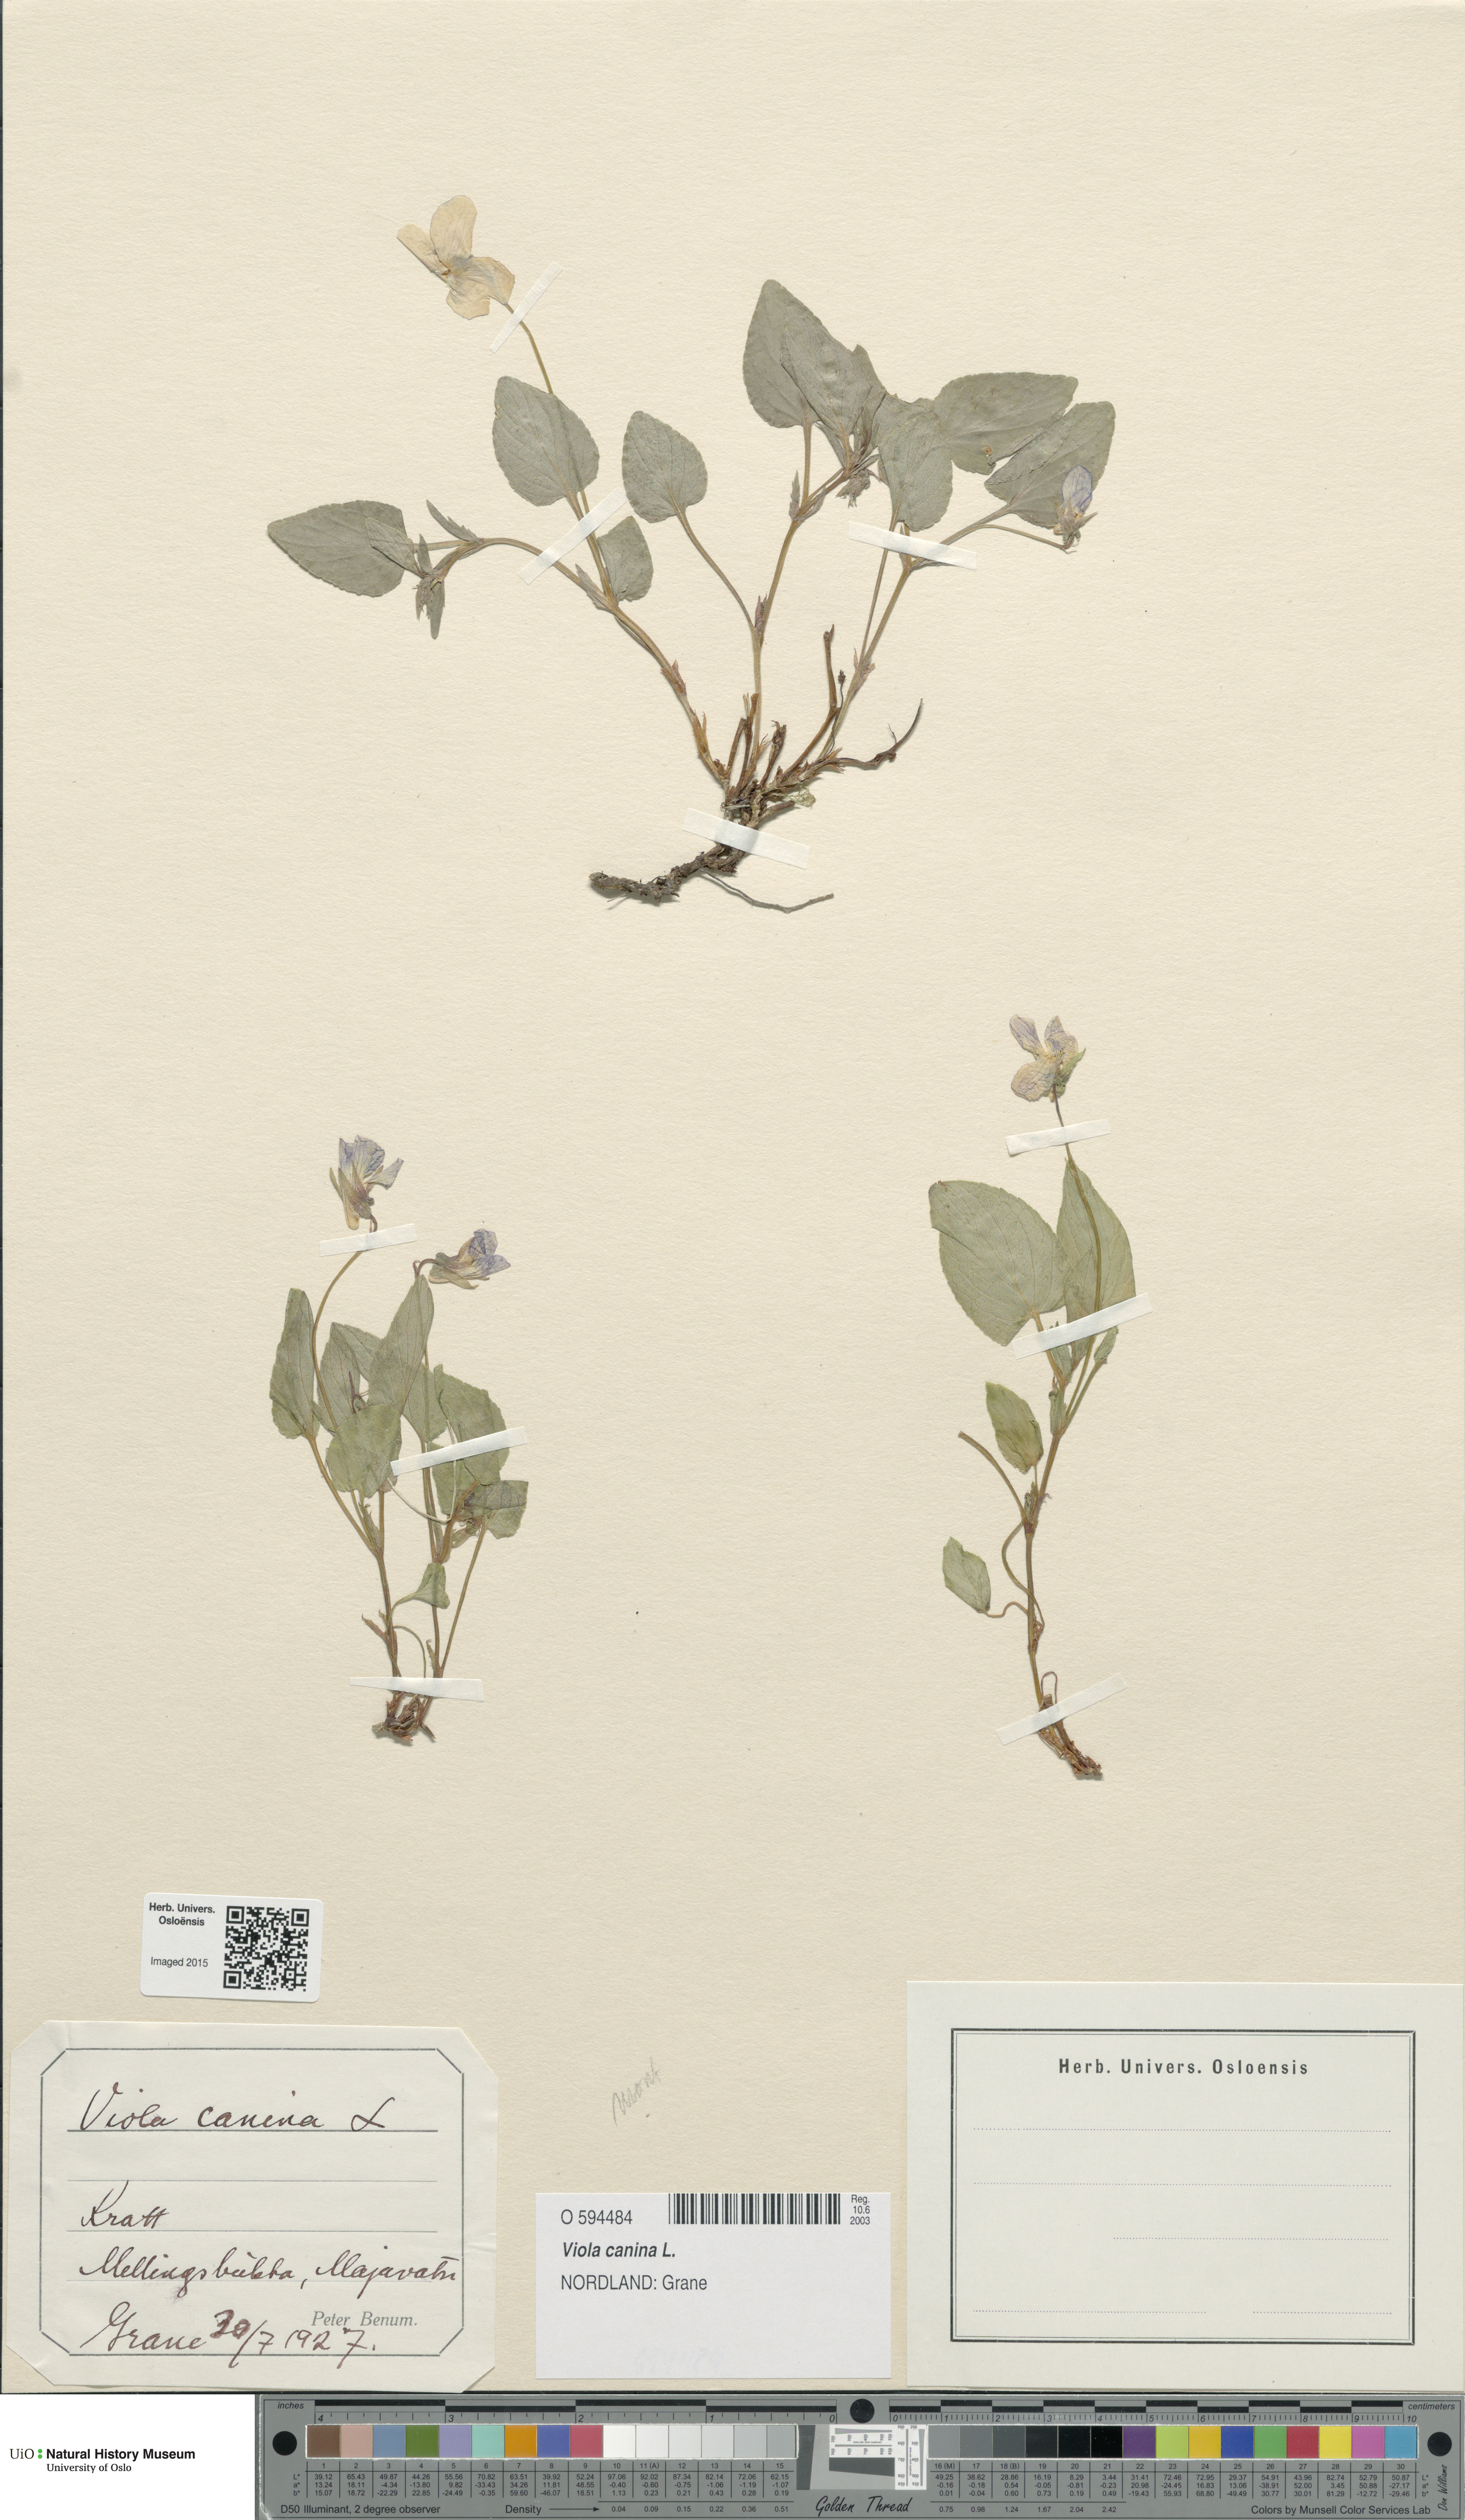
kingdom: Plantae
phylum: Tracheophyta
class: Magnoliopsida
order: Malpighiales
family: Violaceae
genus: Viola
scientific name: Viola canina
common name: Heath dog-violet
